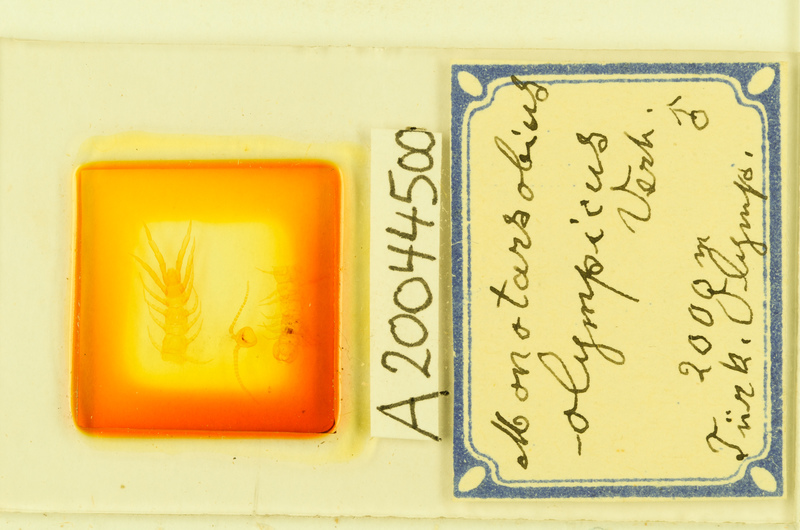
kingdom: Animalia
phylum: Arthropoda
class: Chilopoda
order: Lithobiomorpha
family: Lithobiidae
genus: Monotarsobius
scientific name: Monotarsobius
